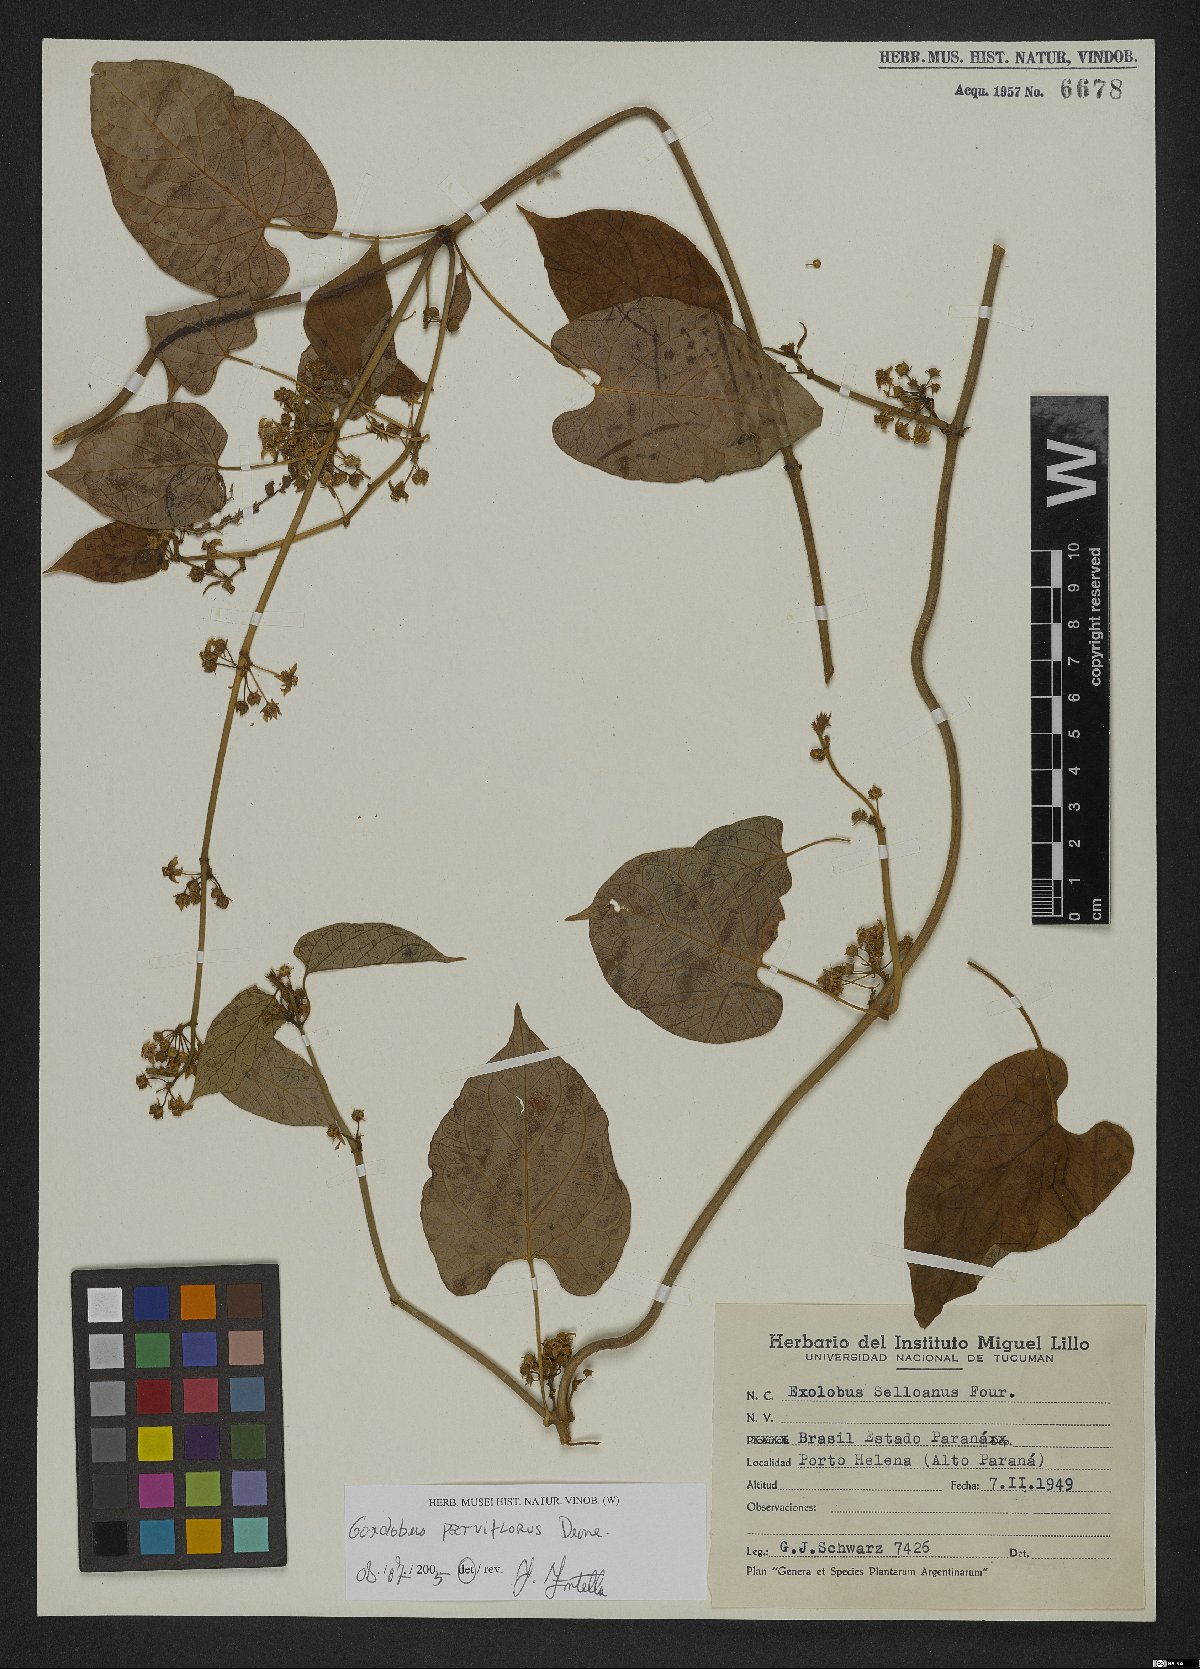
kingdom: Plantae
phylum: Tracheophyta
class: Magnoliopsida
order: Gentianales
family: Apocynaceae
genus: Gonolobus
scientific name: Gonolobus parviflorus
